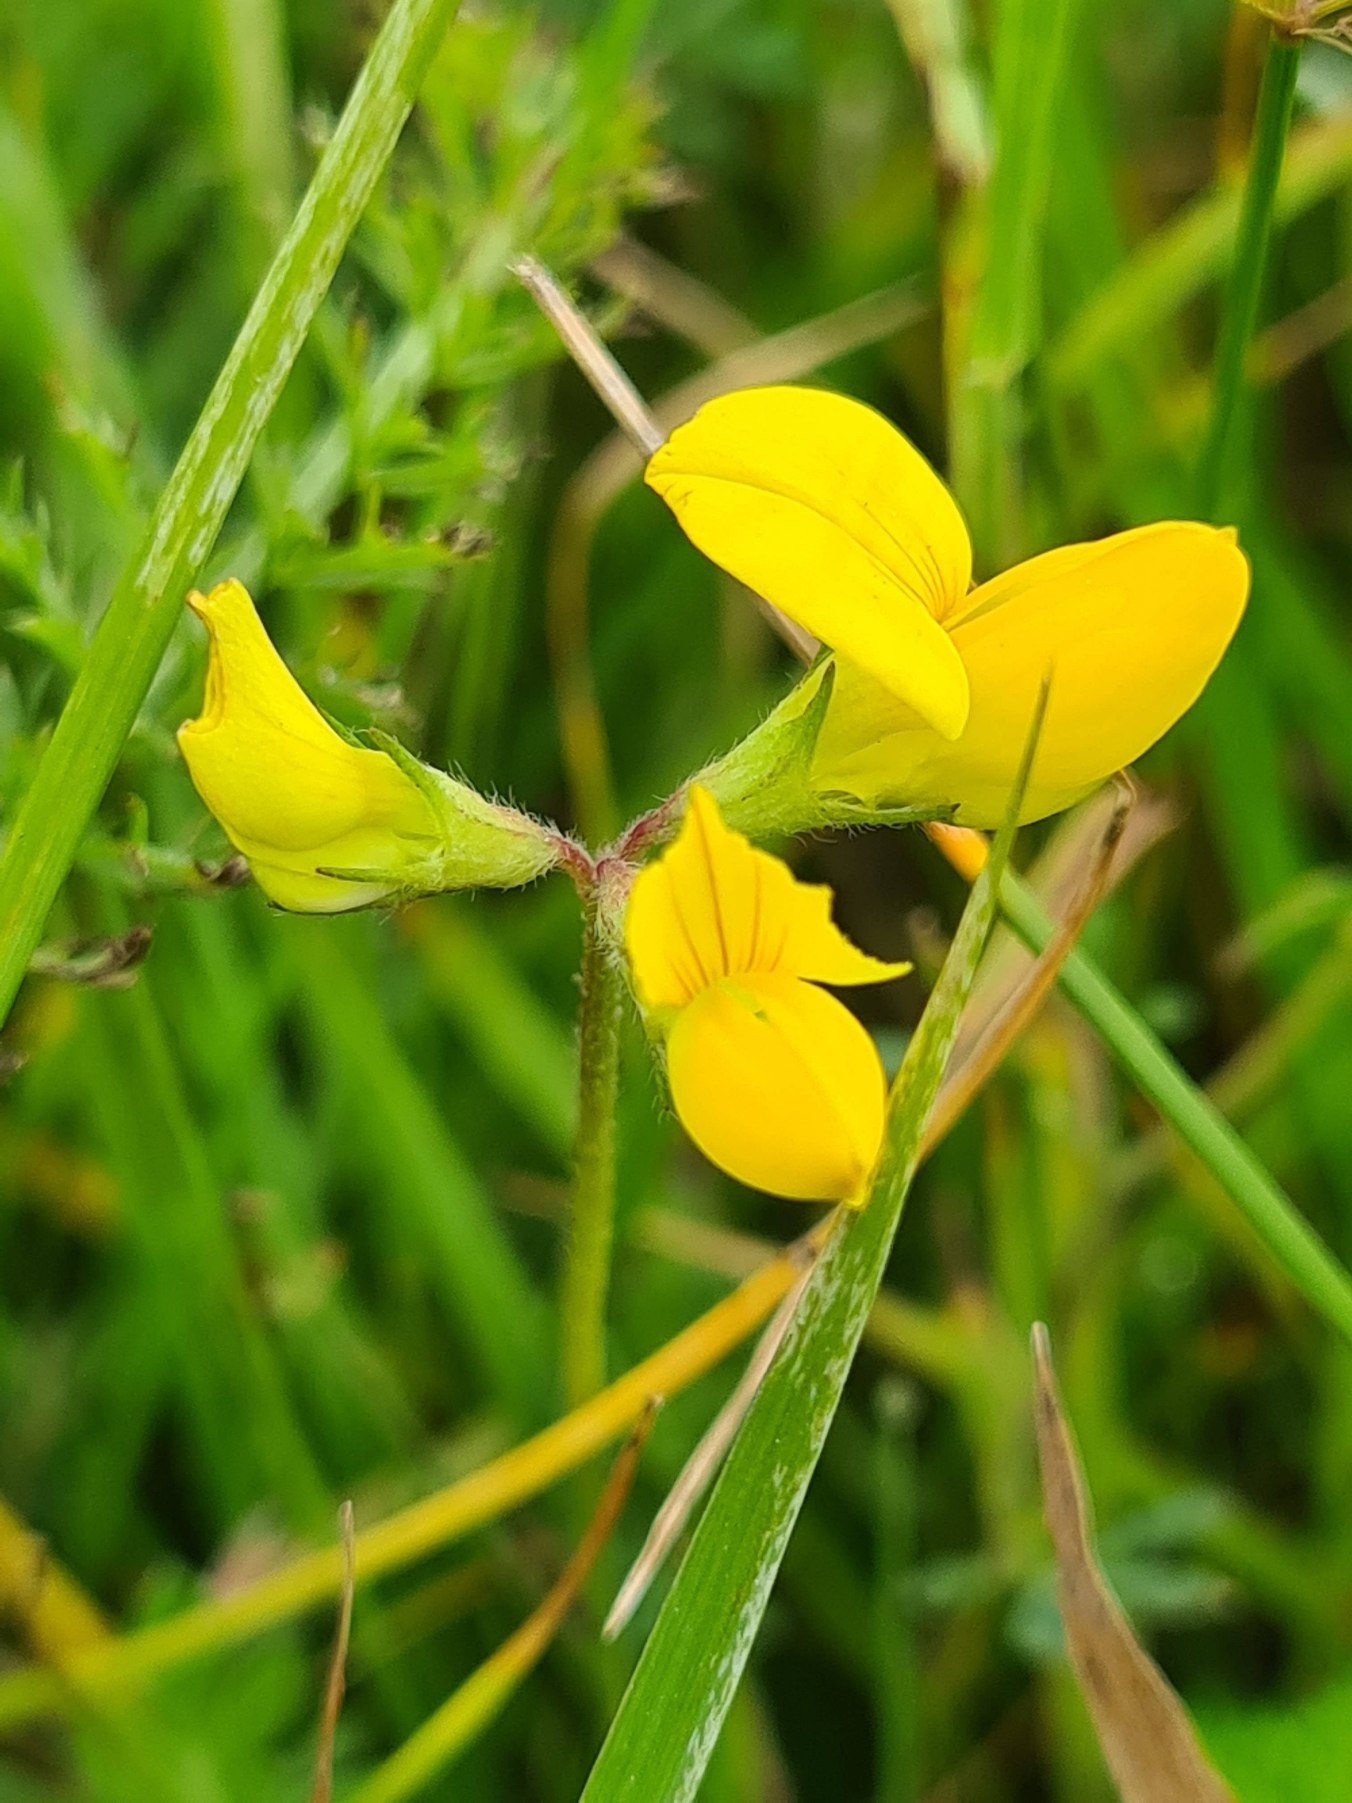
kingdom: Plantae
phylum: Tracheophyta
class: Magnoliopsida
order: Fabales
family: Fabaceae
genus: Lotus
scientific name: Lotus corniculatus
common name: Almindelig kællingetand
